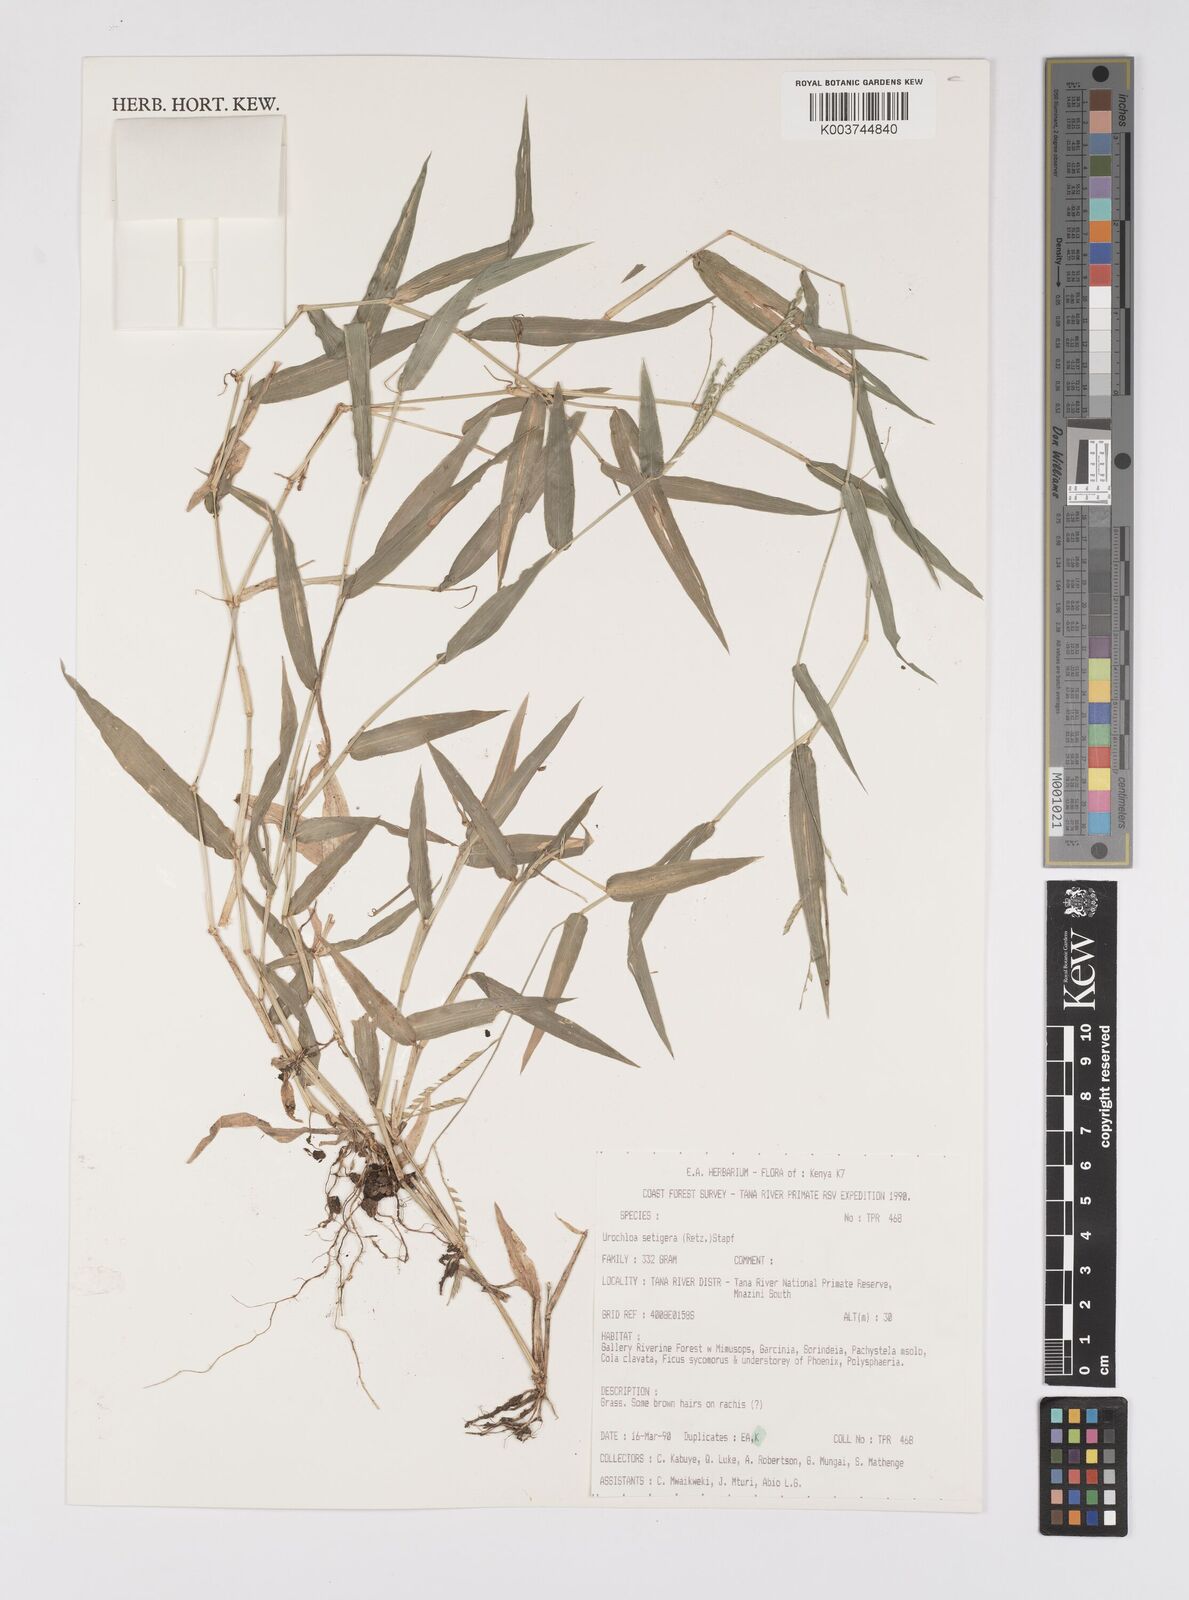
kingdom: Plantae
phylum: Tracheophyta
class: Liliopsida
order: Poales
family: Poaceae
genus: Urochloa
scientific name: Urochloa trichopodioides
